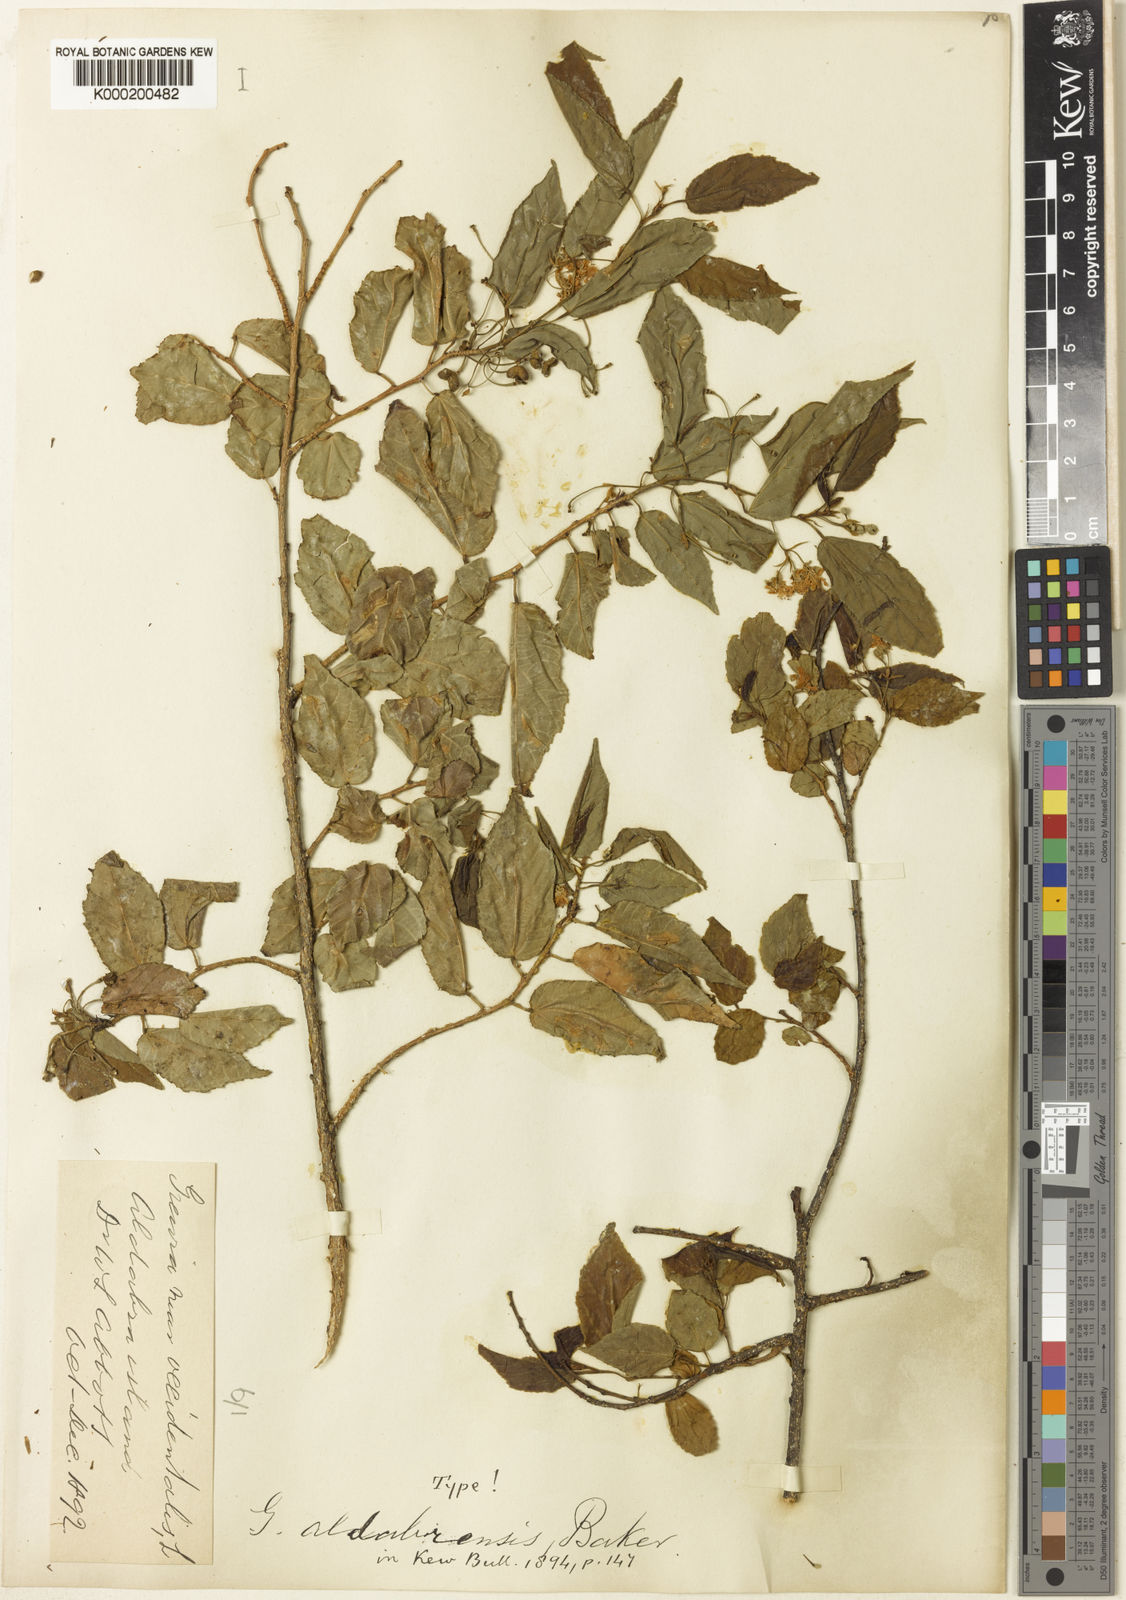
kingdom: Plantae
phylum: Tracheophyta
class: Magnoliopsida
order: Malvales
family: Malvaceae
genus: Grewia
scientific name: Grewia picta
